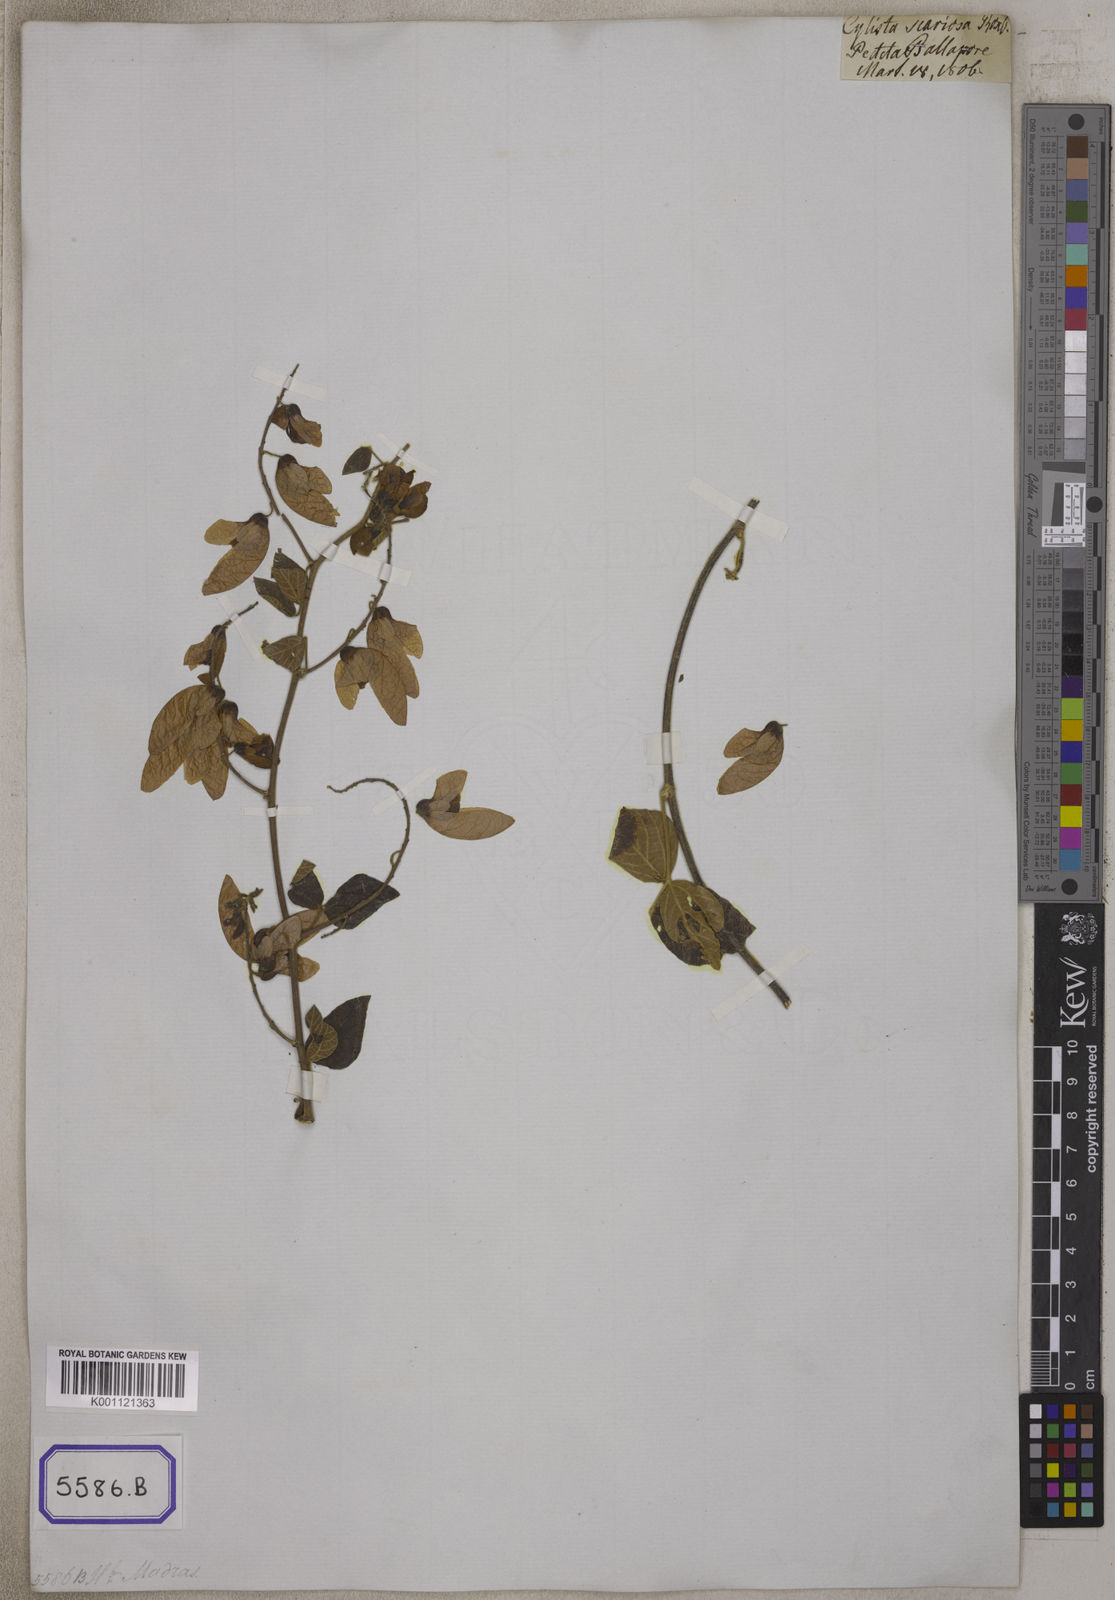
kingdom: Plantae
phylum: Tracheophyta
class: Magnoliopsida
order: Fabales
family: Fabaceae
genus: Paracalyx
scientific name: Paracalyx scariosus
